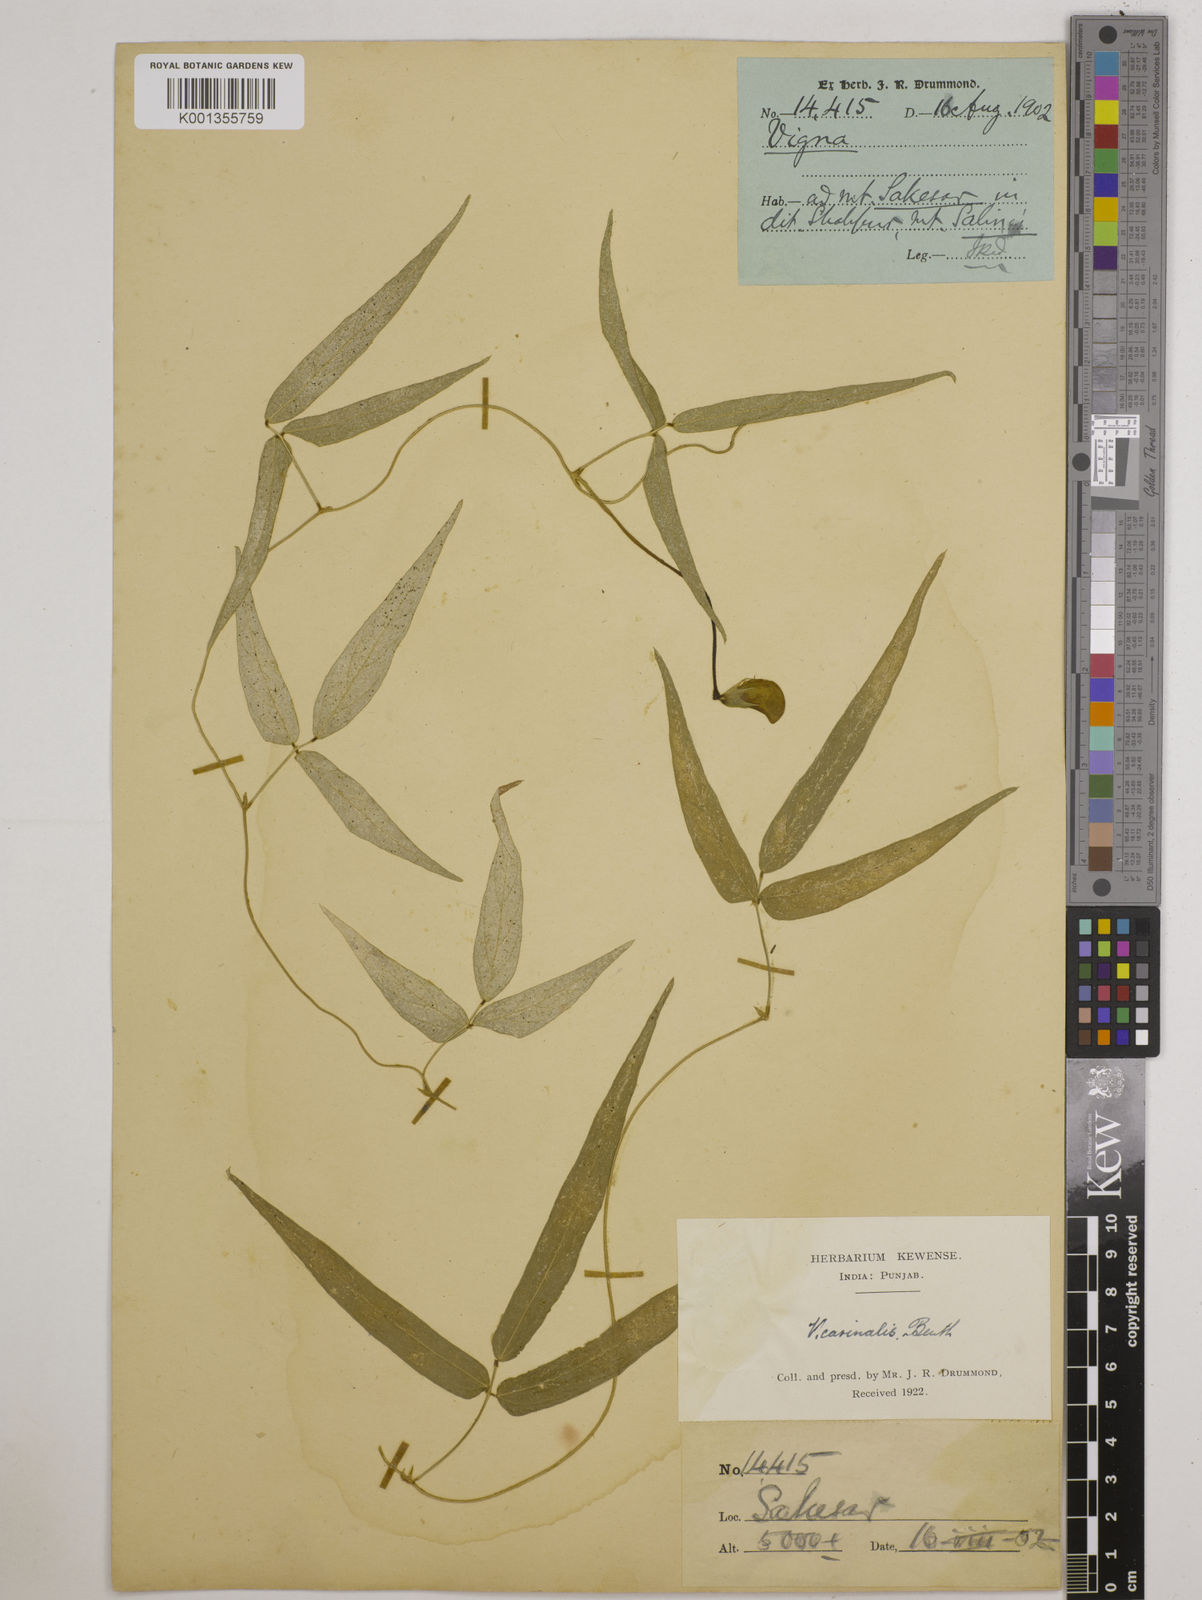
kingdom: Plantae
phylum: Tracheophyta
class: Magnoliopsida
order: Fabales
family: Fabaceae
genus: Vigna
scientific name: Vigna vexillata
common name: Zombi pea
